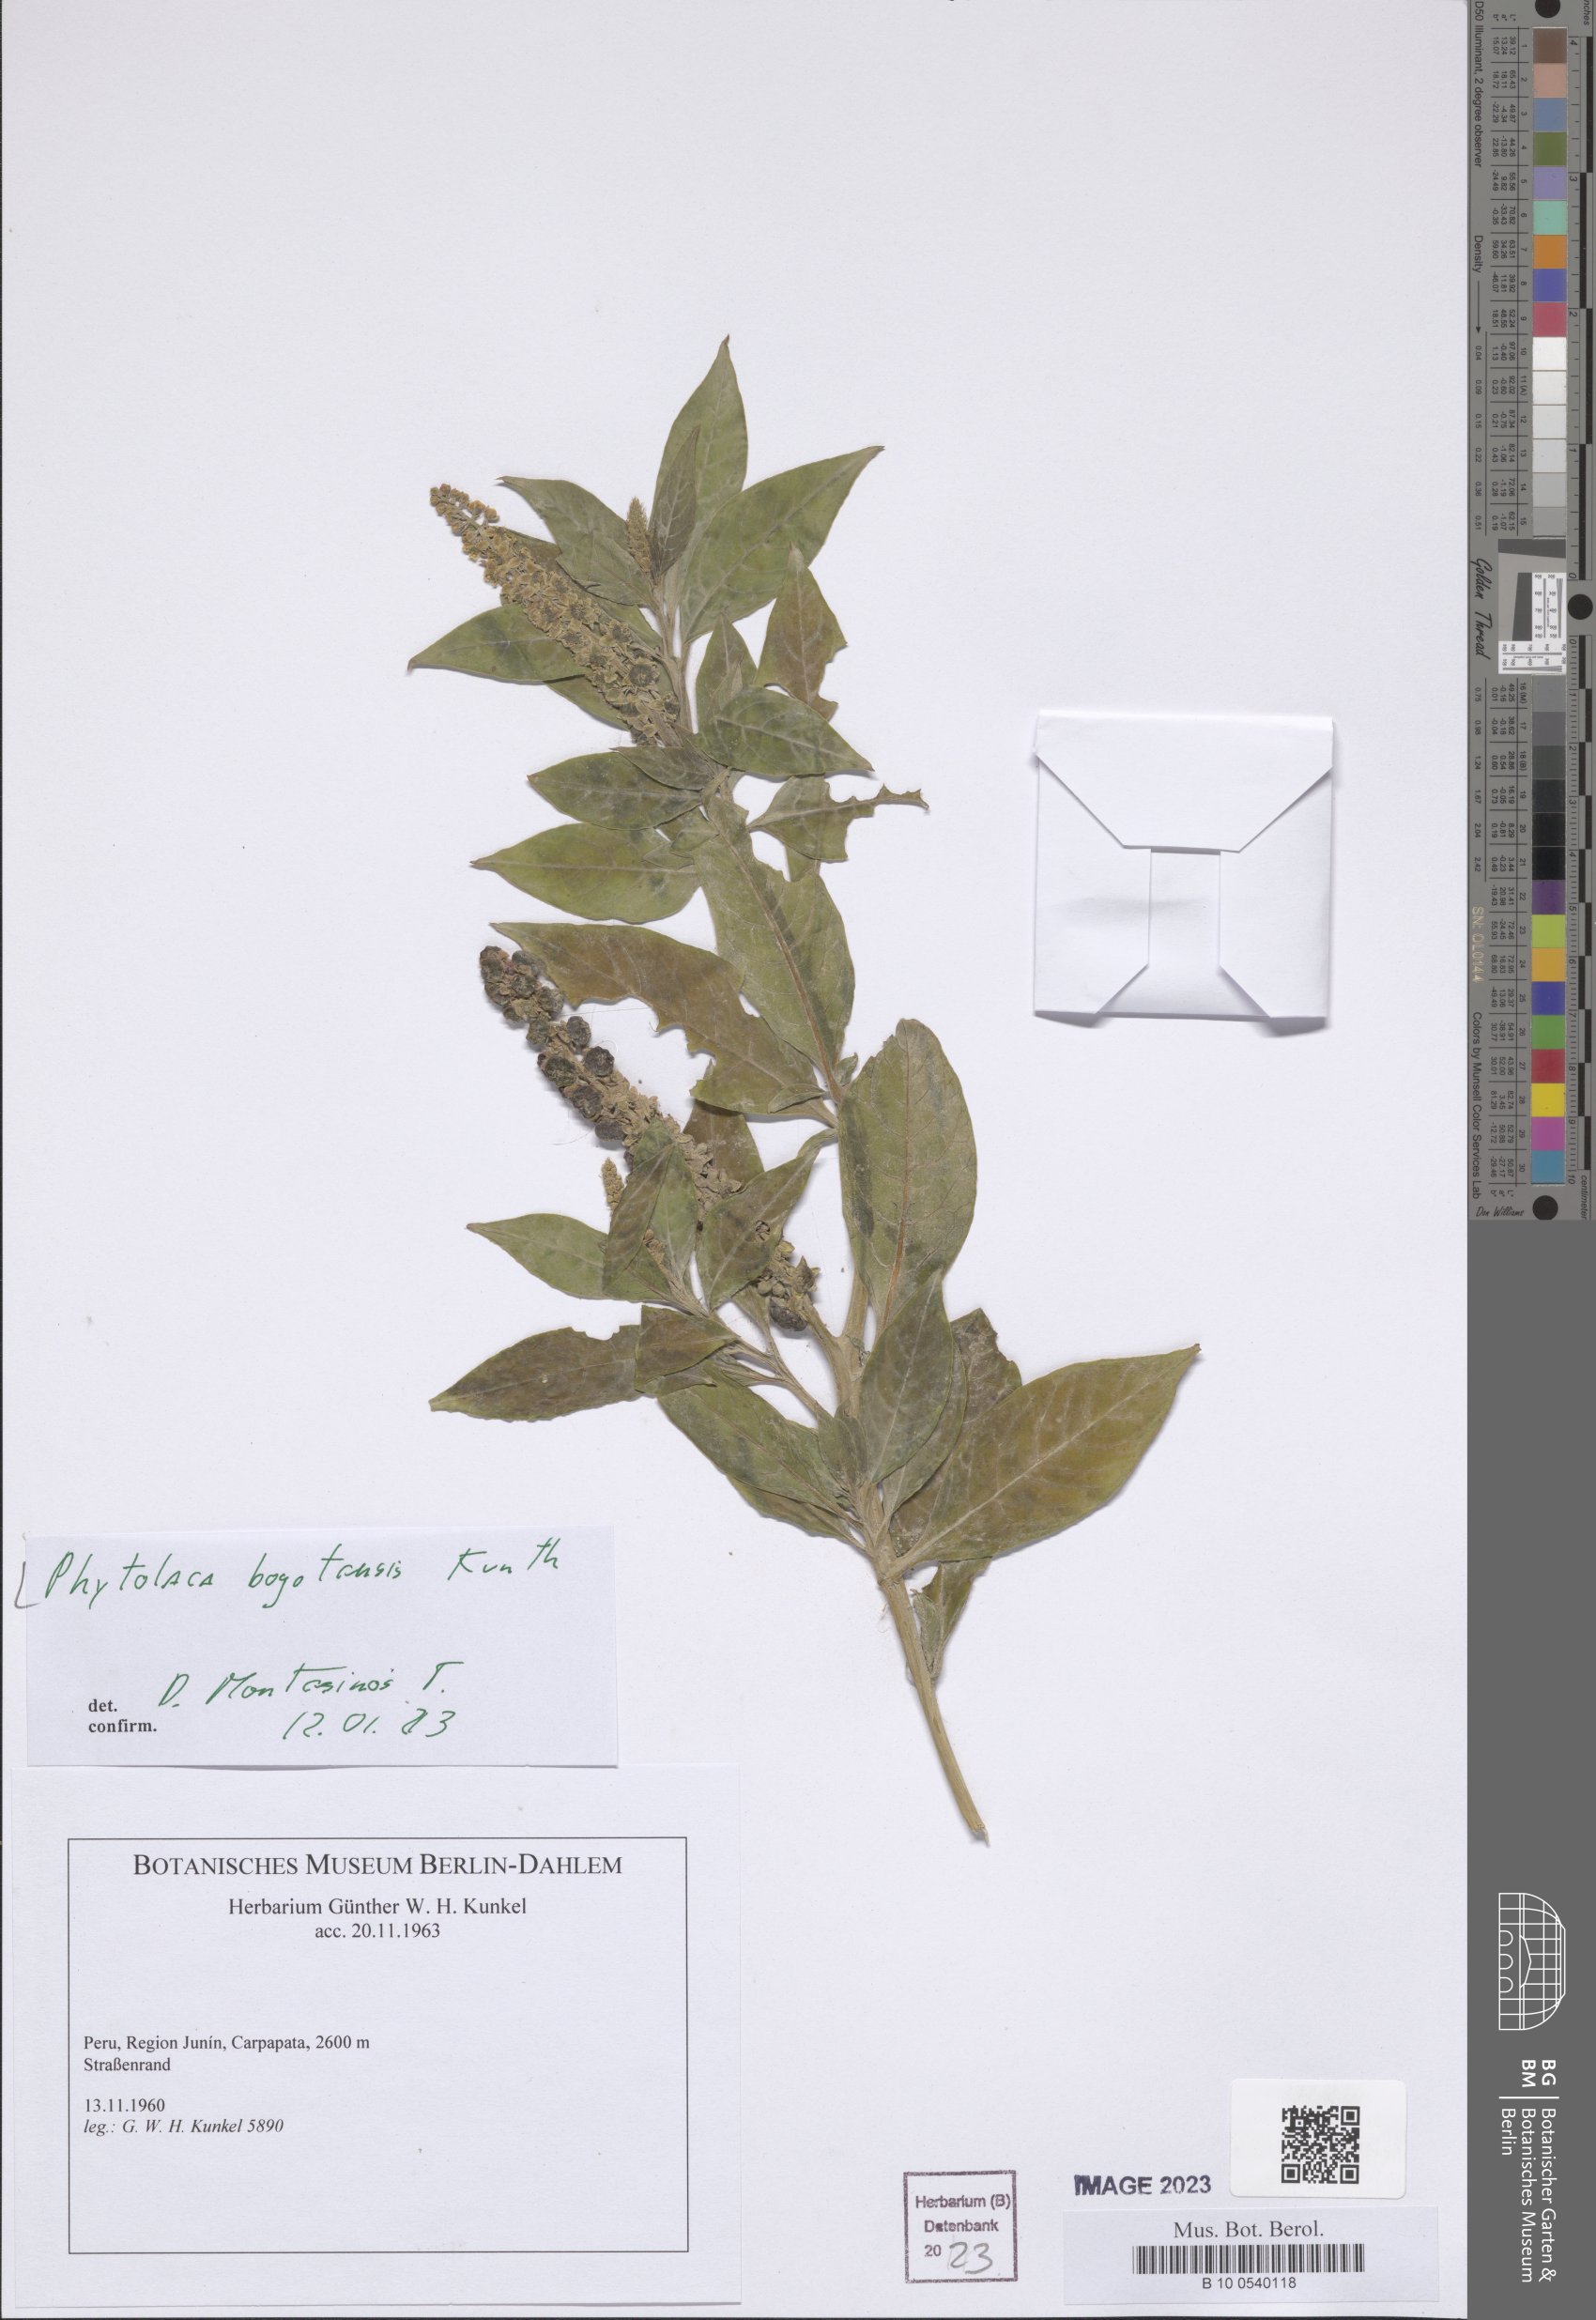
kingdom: Plantae
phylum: Tracheophyta
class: Magnoliopsida
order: Caryophyllales
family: Phytolaccaceae
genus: Phytolacca
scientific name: Phytolacca bogotensis
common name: Southern pokeweed
